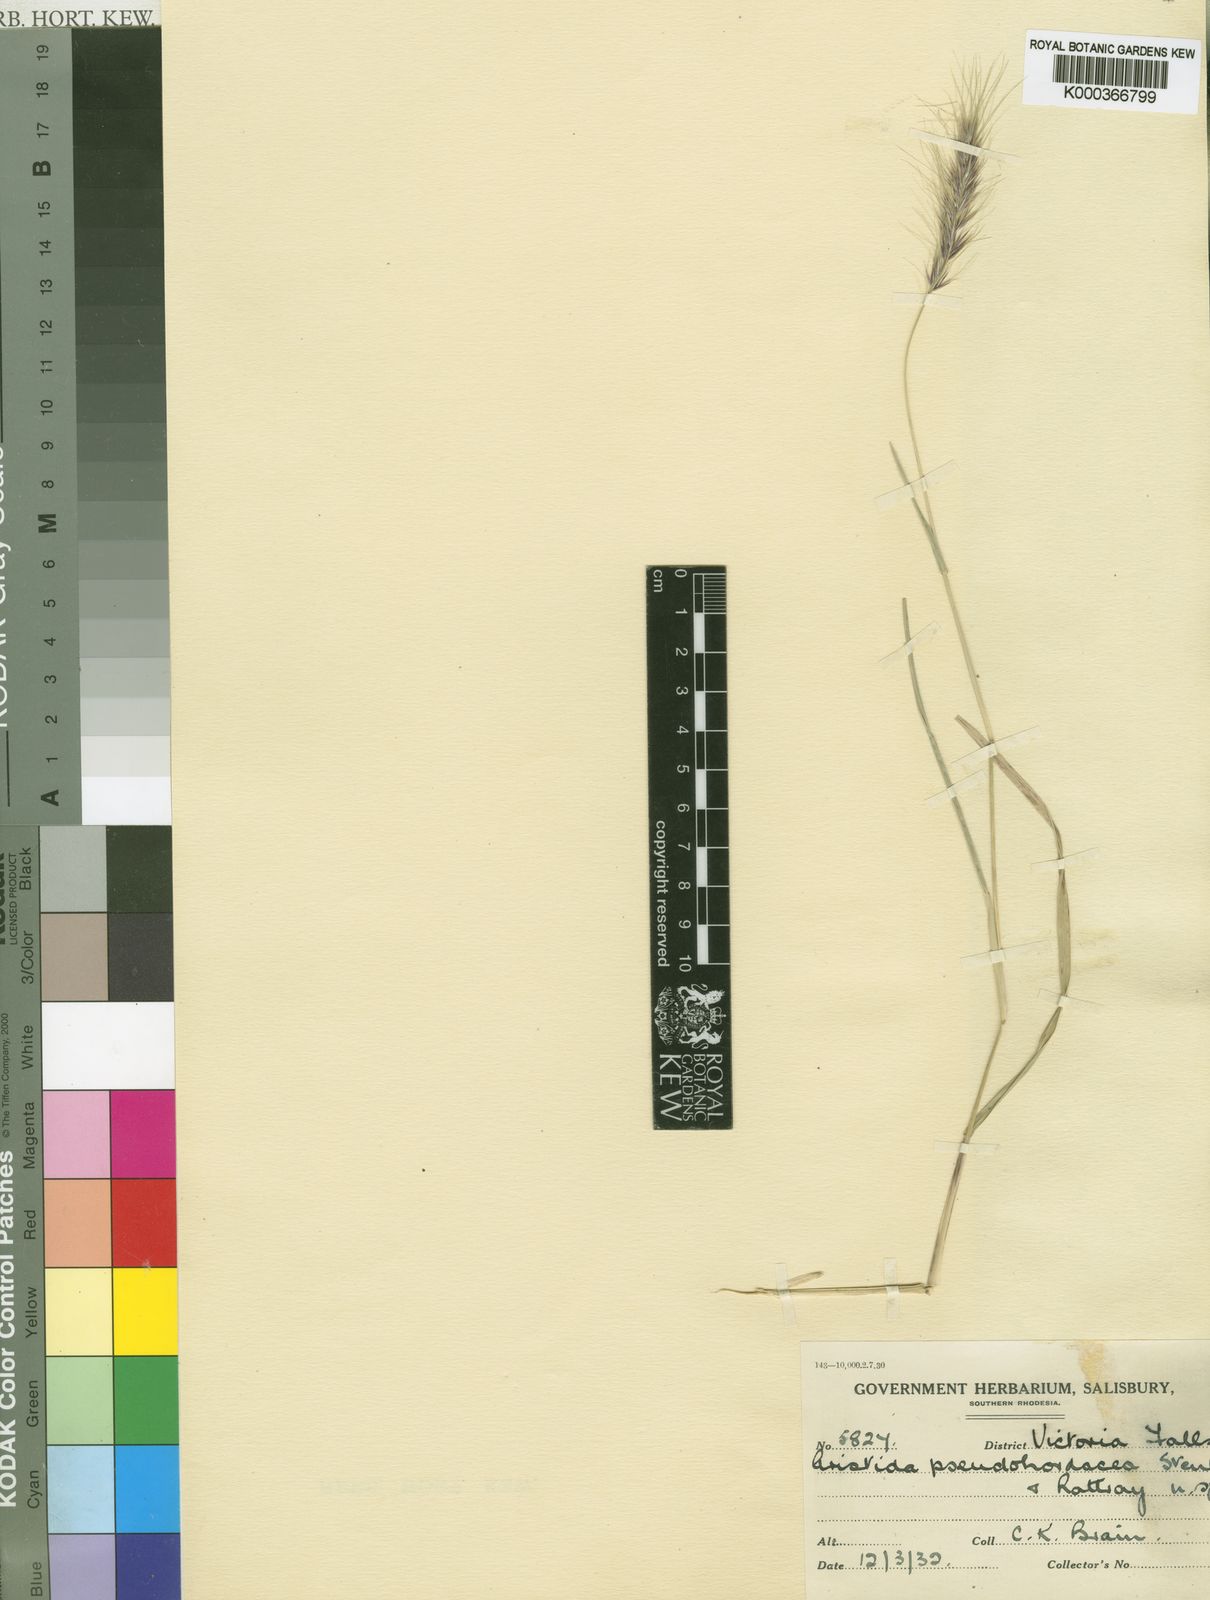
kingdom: Plantae
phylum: Tracheophyta
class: Liliopsida
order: Poales
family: Poaceae
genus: Aristida
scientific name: Aristida hordeacea
